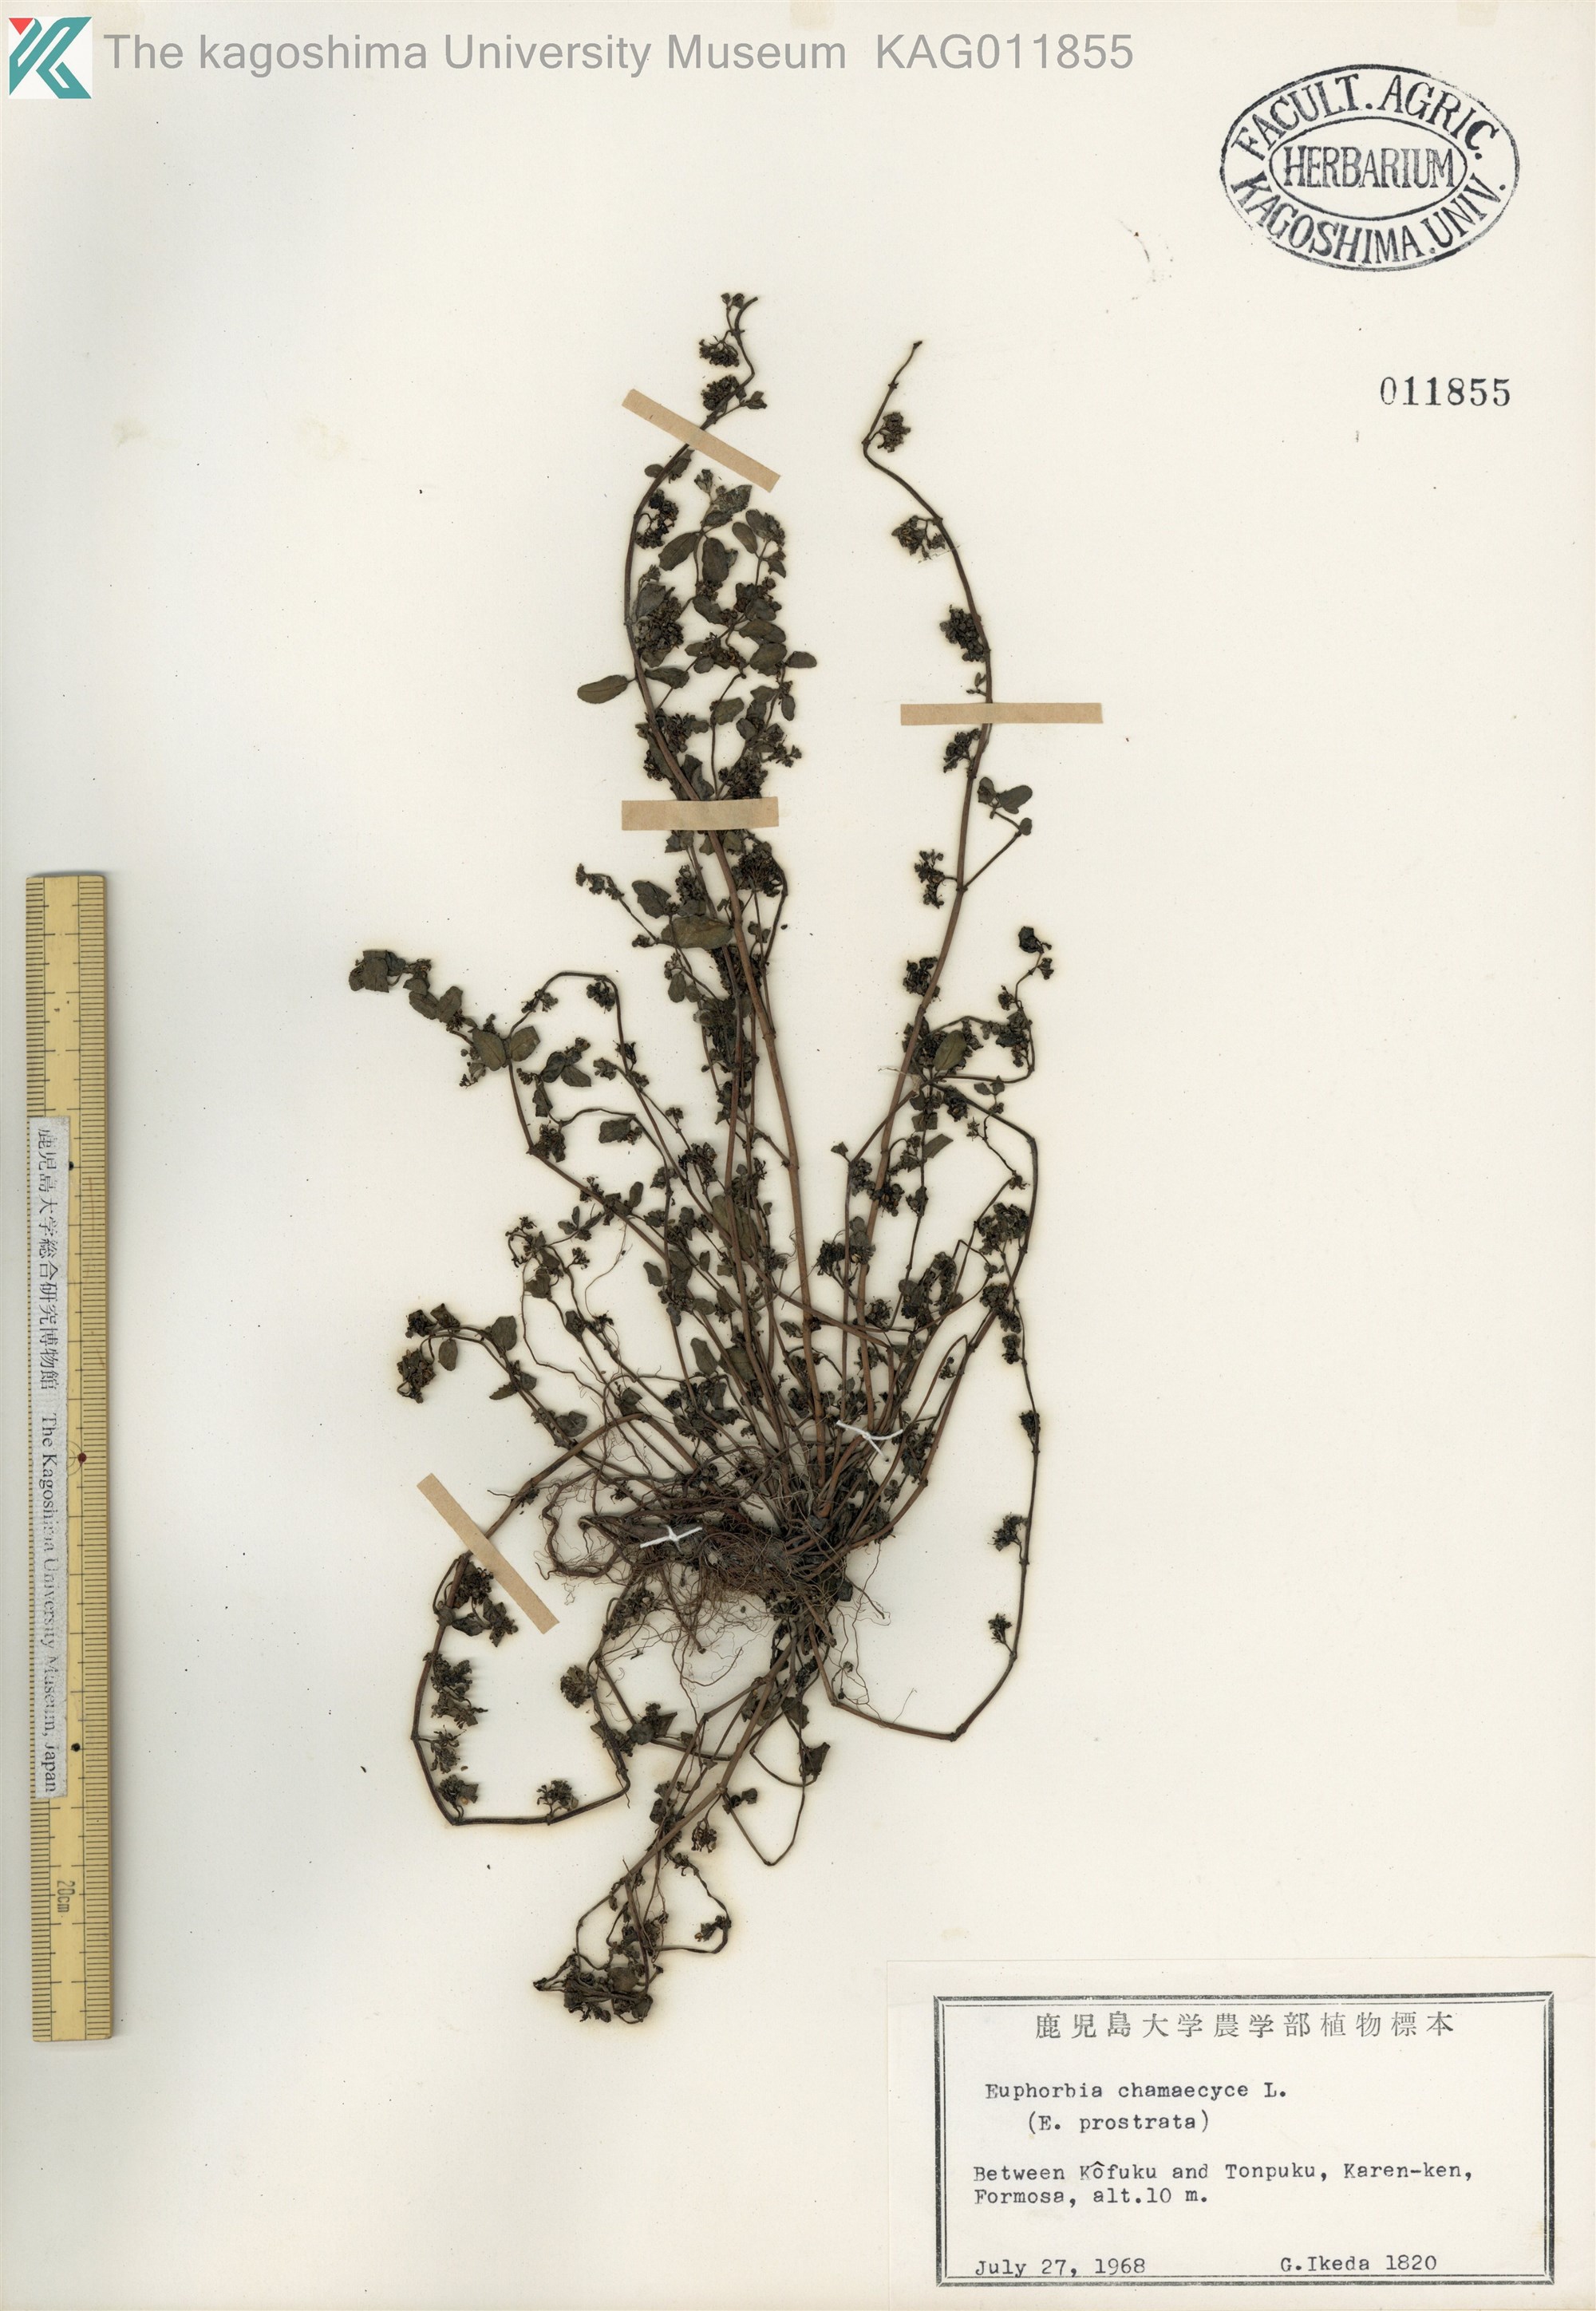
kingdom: Plantae
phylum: Tracheophyta
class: Magnoliopsida
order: Malpighiales
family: Euphorbiaceae
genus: Euphorbia
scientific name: Euphorbia prostrata
